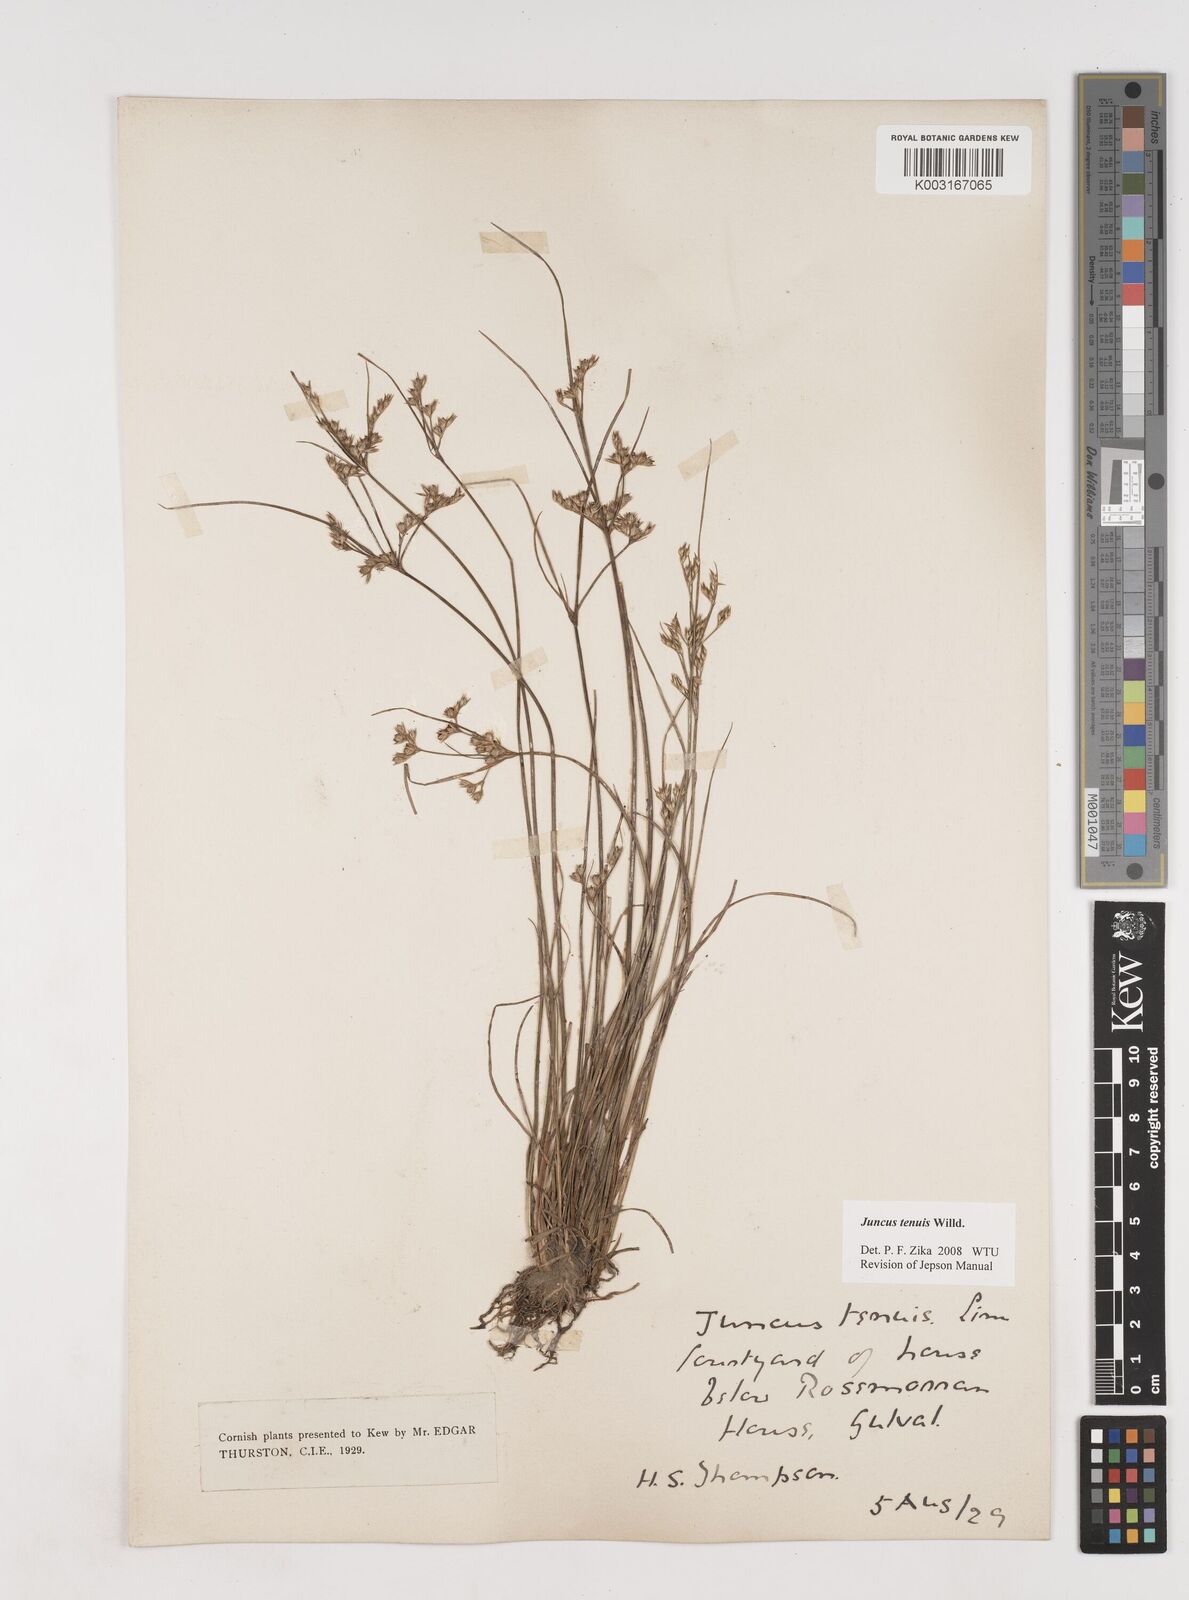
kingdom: Plantae
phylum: Tracheophyta
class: Liliopsida
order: Poales
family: Juncaceae
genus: Juncus
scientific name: Juncus tenuis
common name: Slender rush
